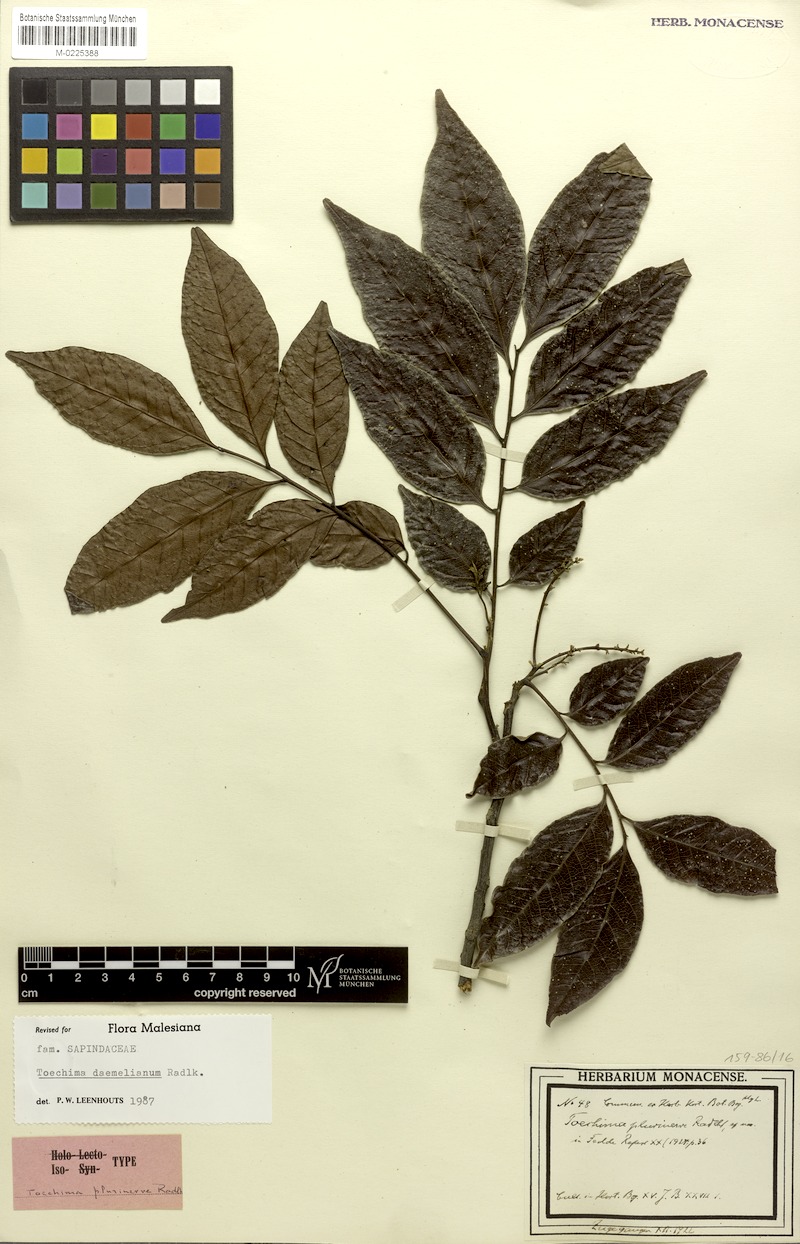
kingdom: Plantae
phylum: Tracheophyta
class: Magnoliopsida
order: Sapindales
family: Sapindaceae
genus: Toechima
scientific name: Toechima daemelianum
